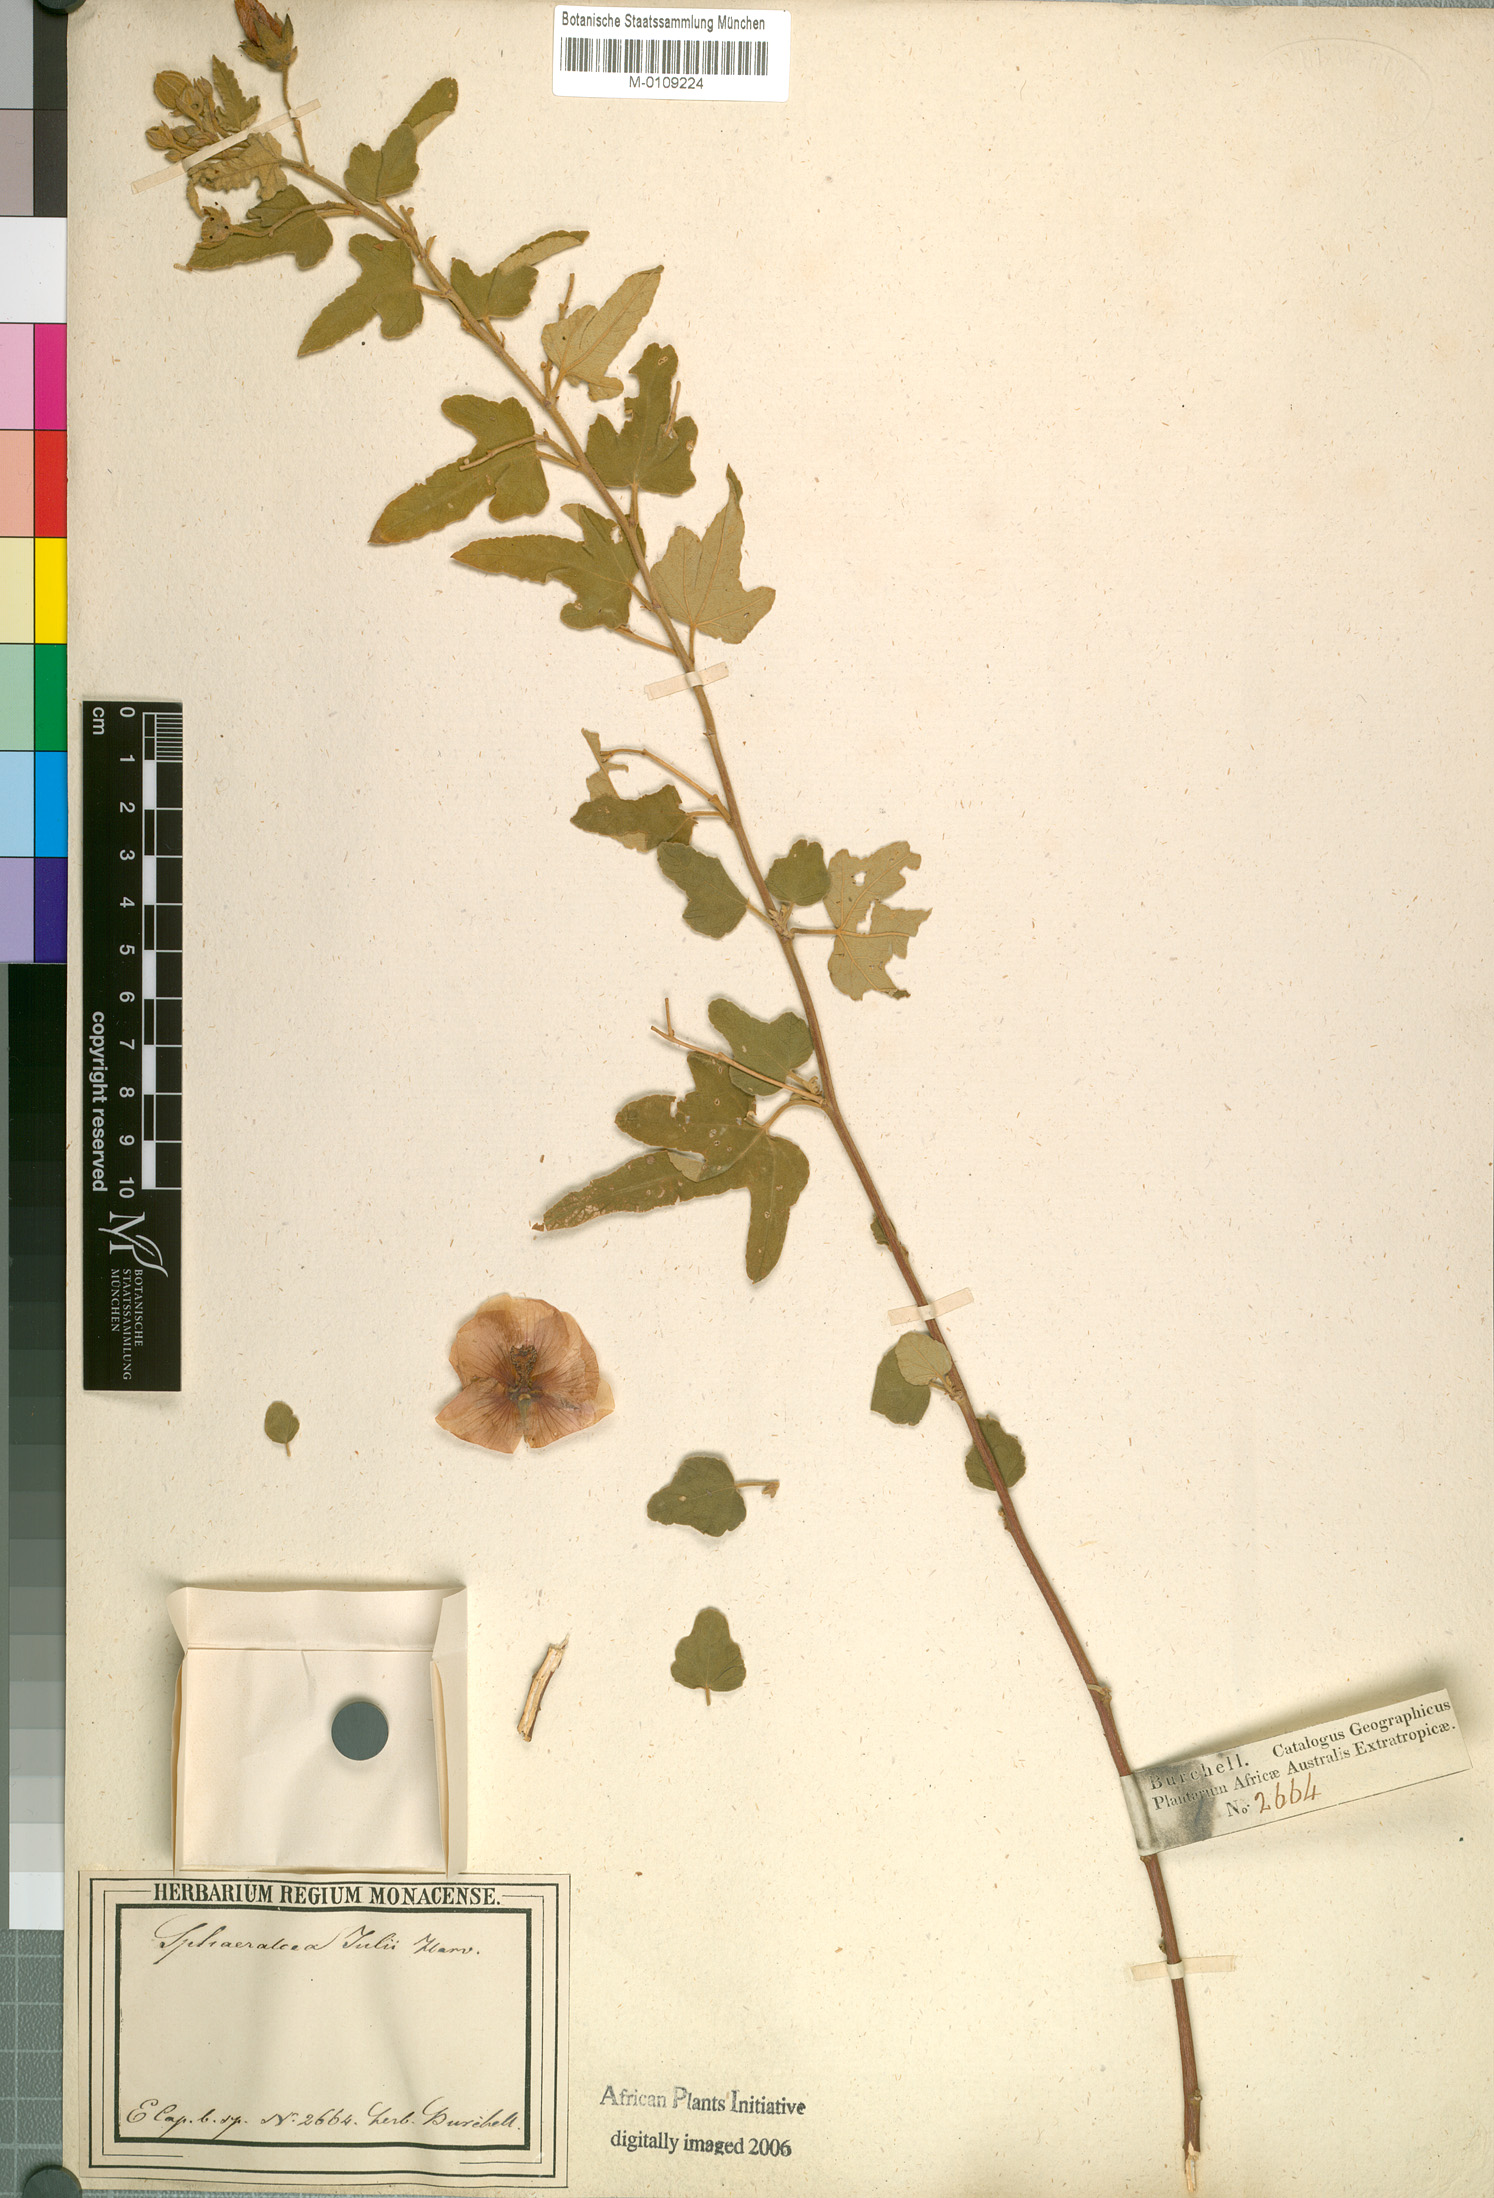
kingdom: Plantae
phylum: Tracheophyta
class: Magnoliopsida
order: Malvales
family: Malvaceae
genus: Anisodontea
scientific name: Anisodontea julii
